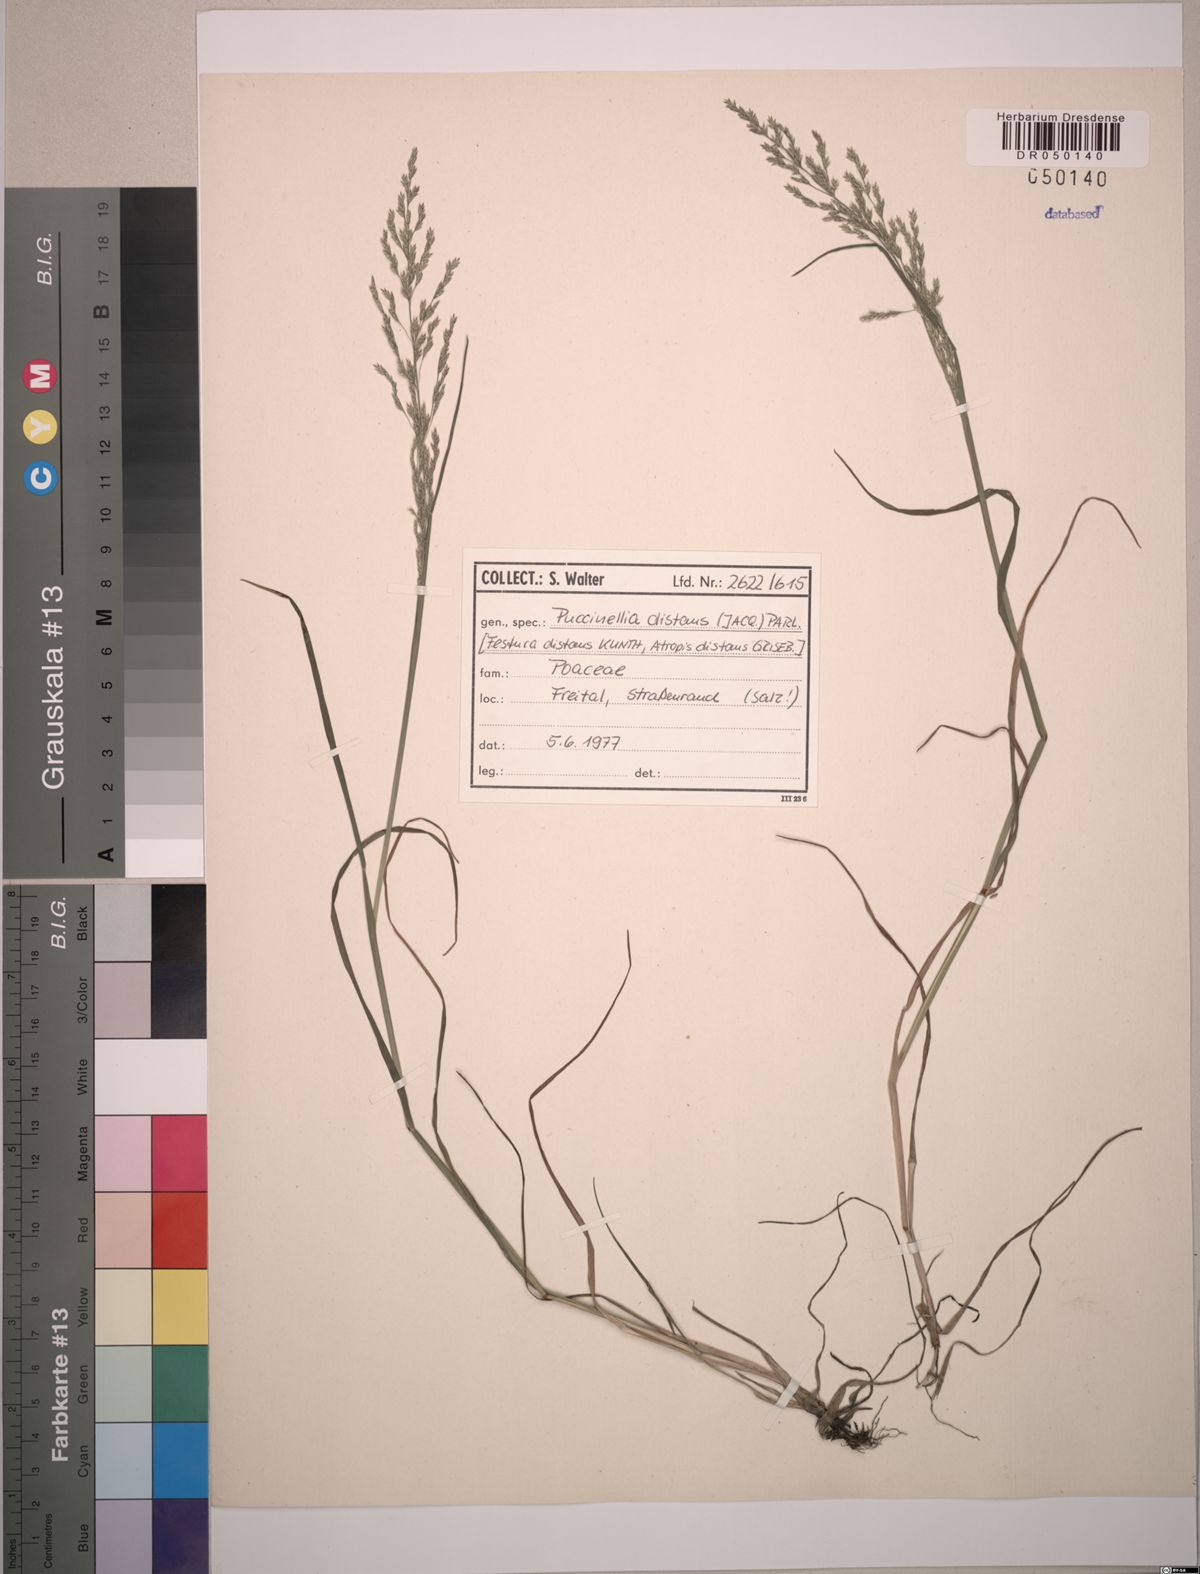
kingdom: Plantae
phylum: Tracheophyta
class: Liliopsida
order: Poales
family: Poaceae
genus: Puccinellia
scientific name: Puccinellia distans
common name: Weeping alkaligrass
